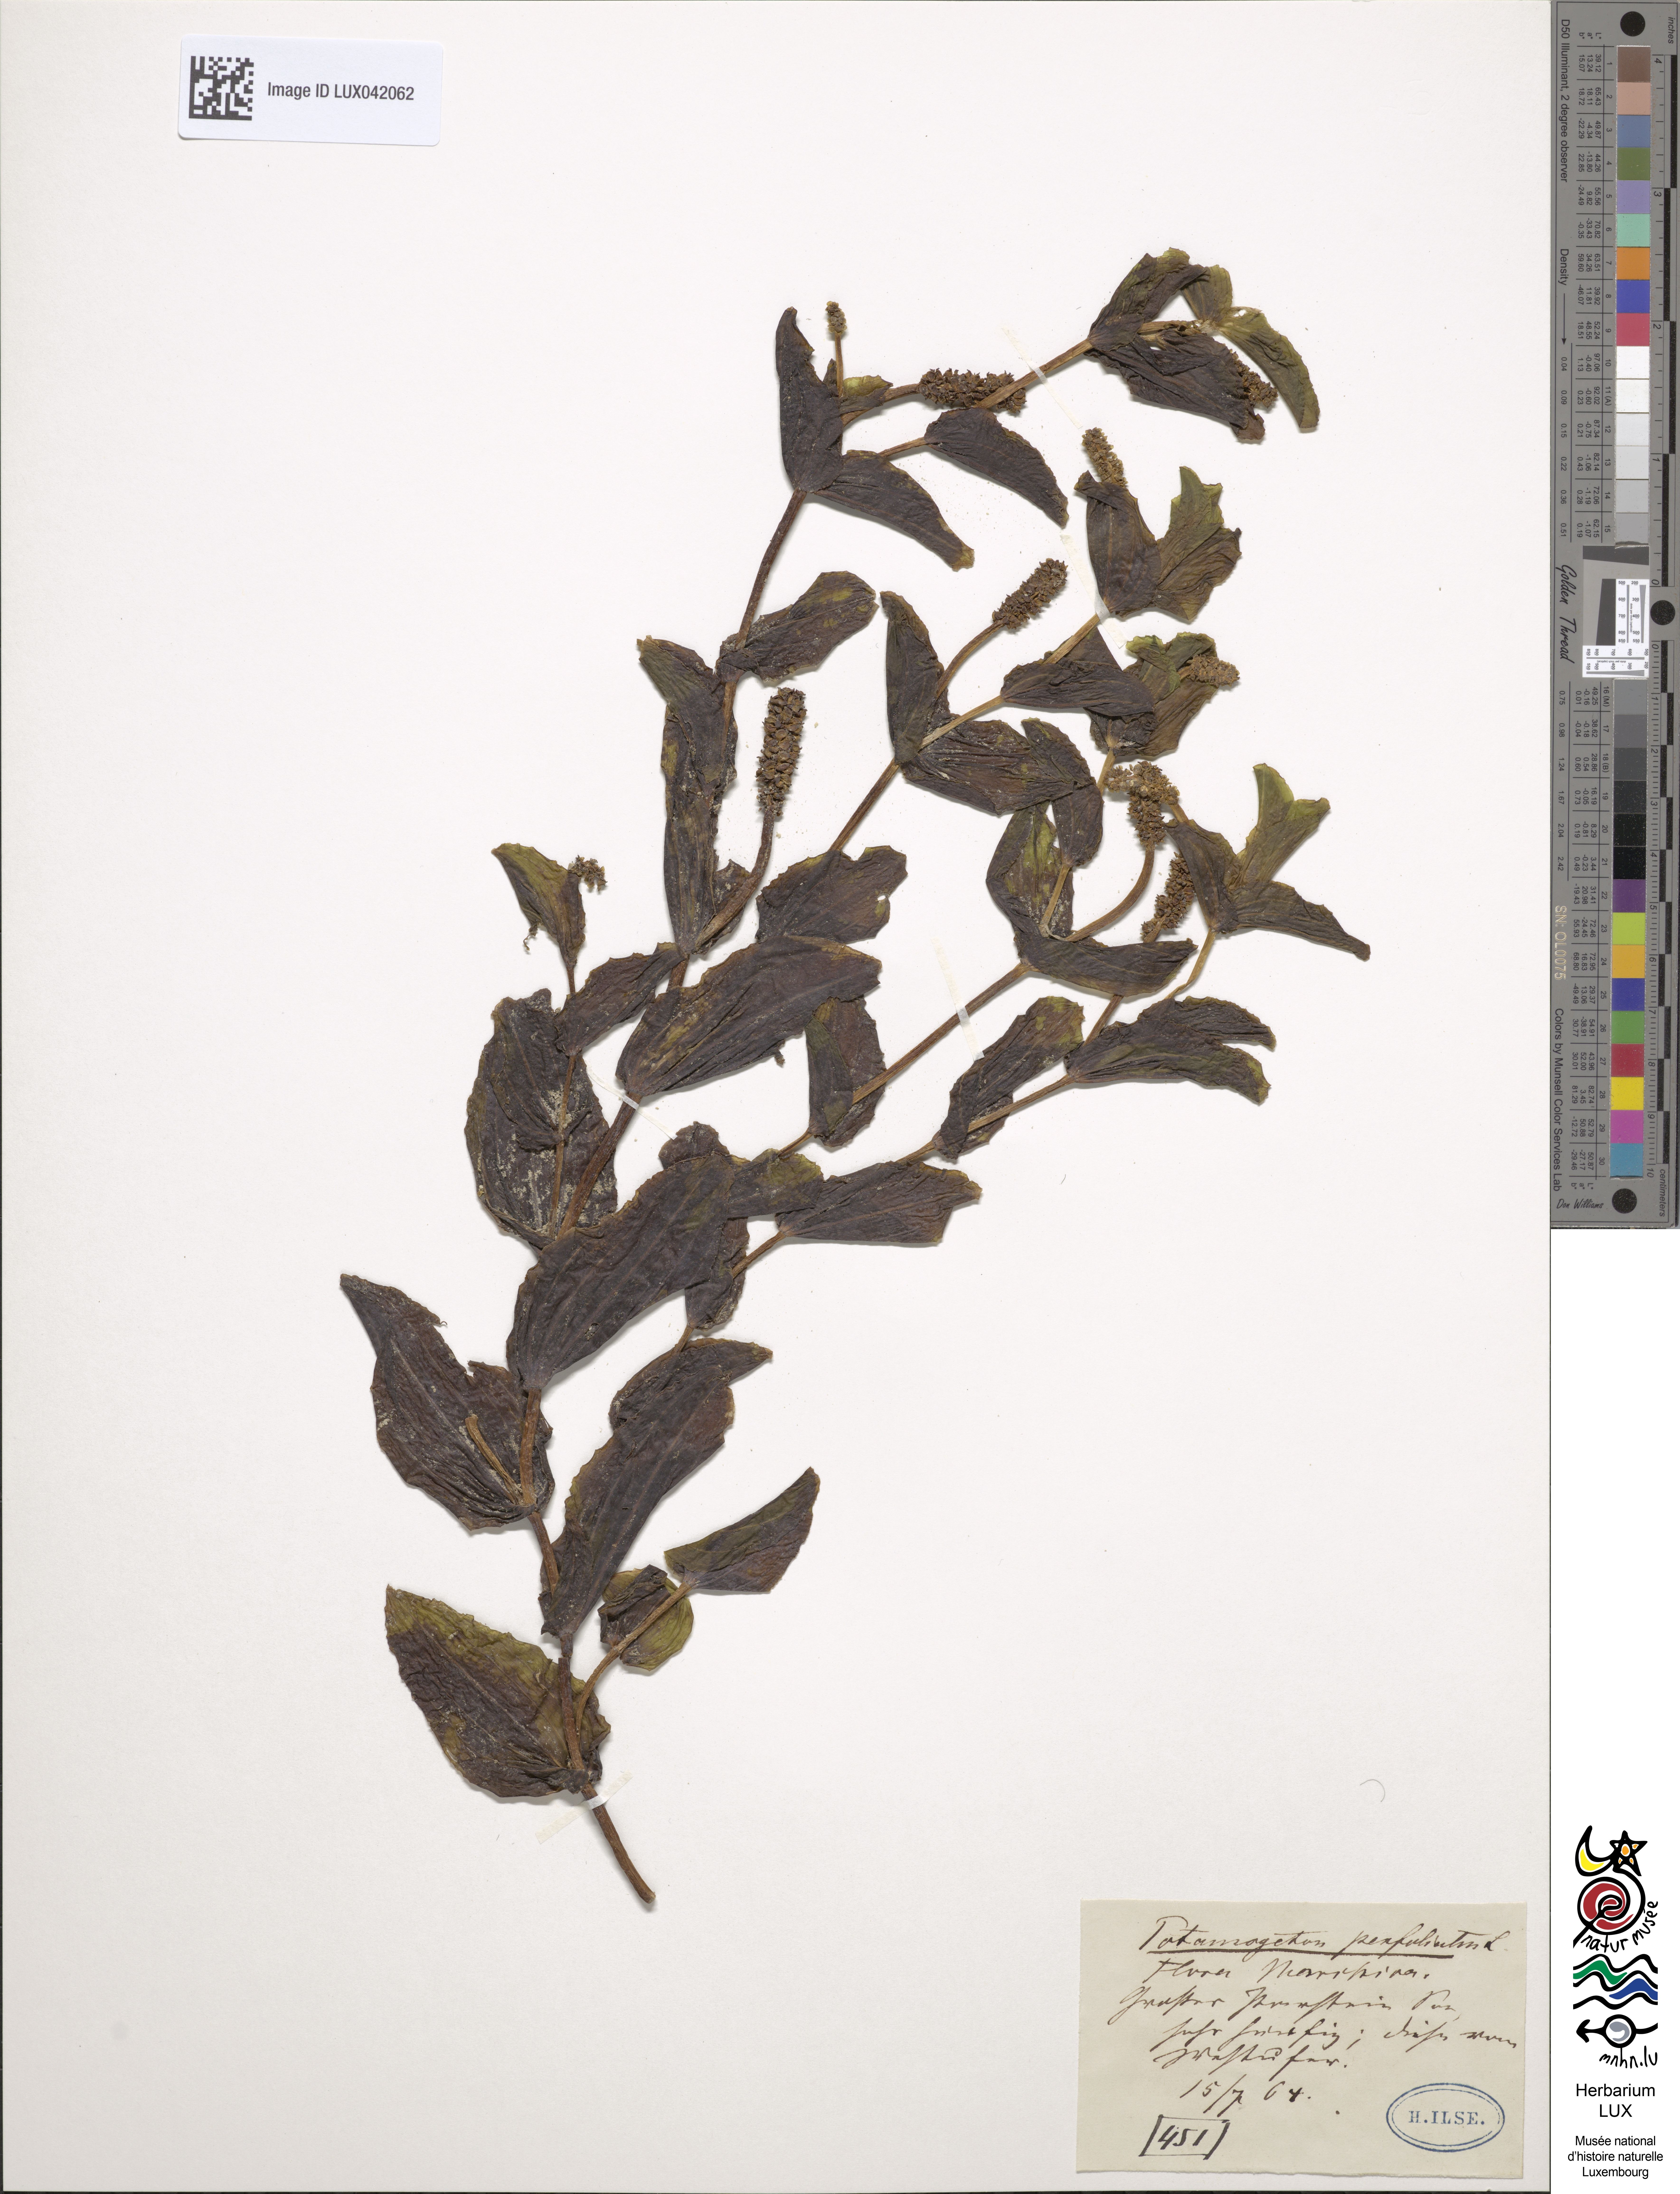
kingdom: Plantae
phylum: Tracheophyta
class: Liliopsida
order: Alismatales
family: Potamogetonaceae
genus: Potamogeton
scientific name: Potamogeton perfoliatus
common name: Perfoliate pondweed
